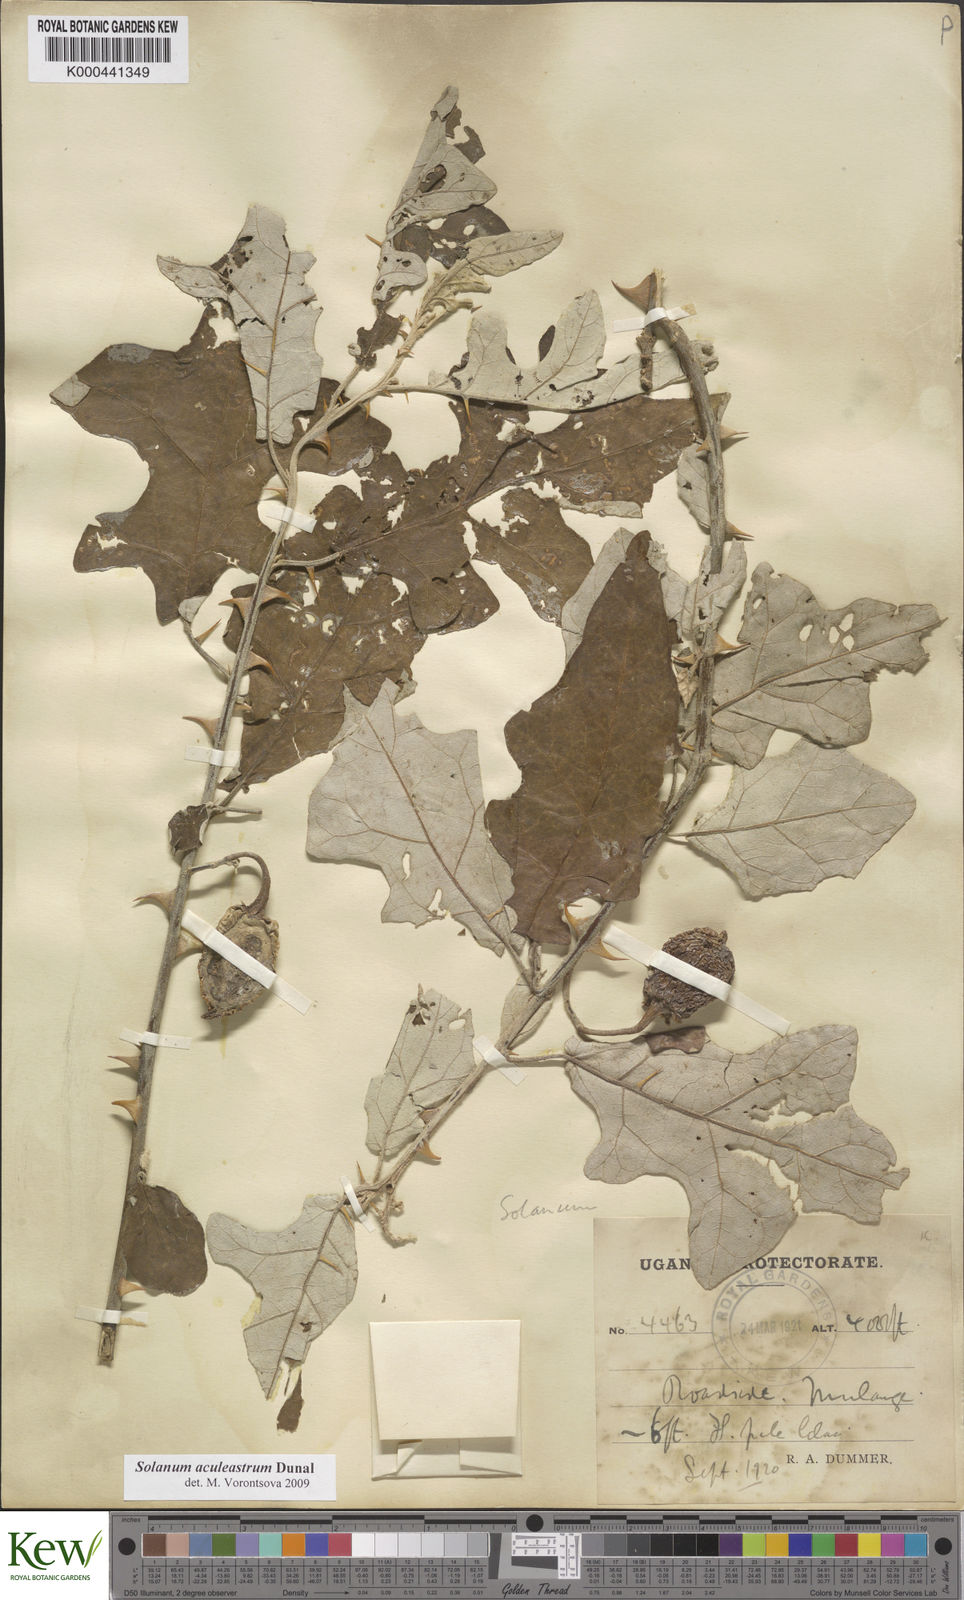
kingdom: Plantae
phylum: Tracheophyta
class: Magnoliopsida
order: Solanales
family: Solanaceae
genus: Solanum
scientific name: Solanum aculeastrum
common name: Goat bitter-apple
